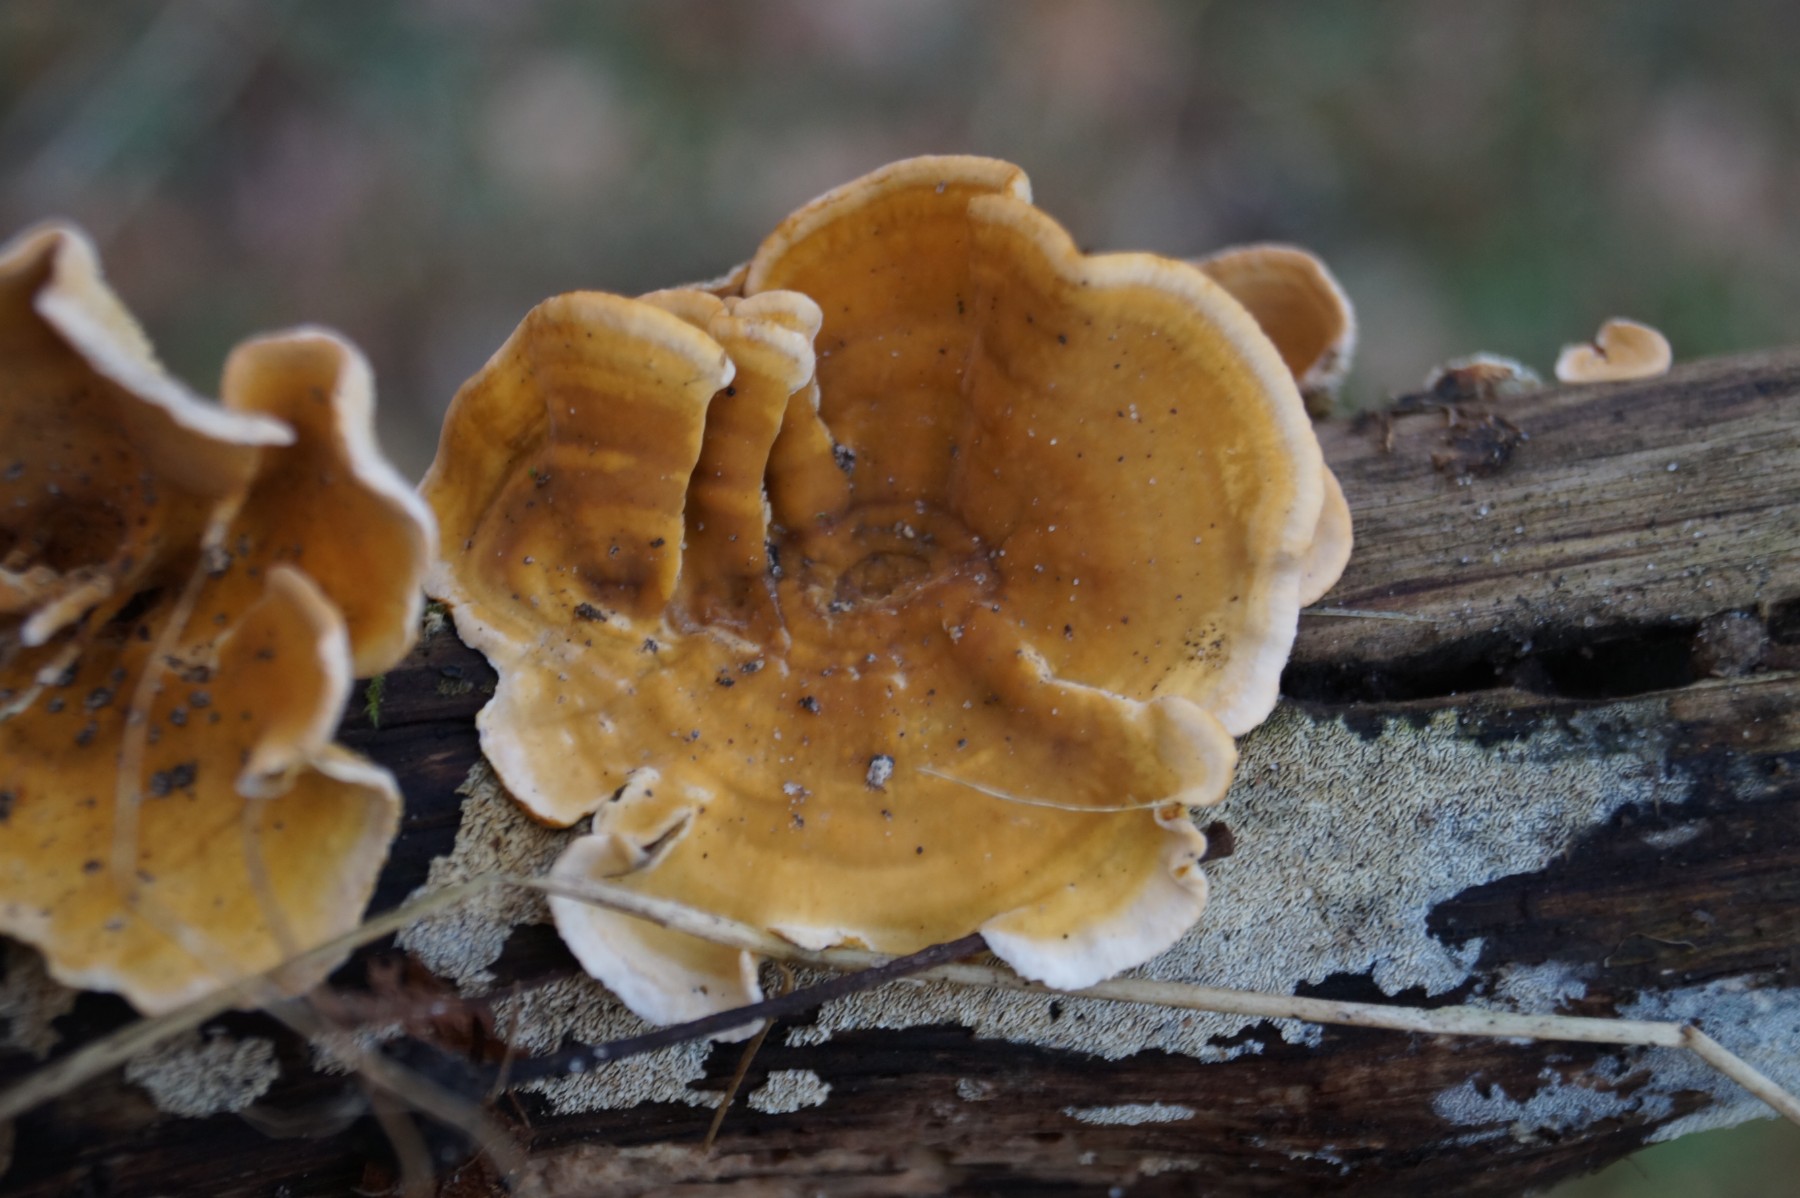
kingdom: Fungi
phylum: Basidiomycota
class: Agaricomycetes
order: Russulales
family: Stereaceae
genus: Stereum
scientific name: Stereum hirsutum
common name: håret lædersvamp
